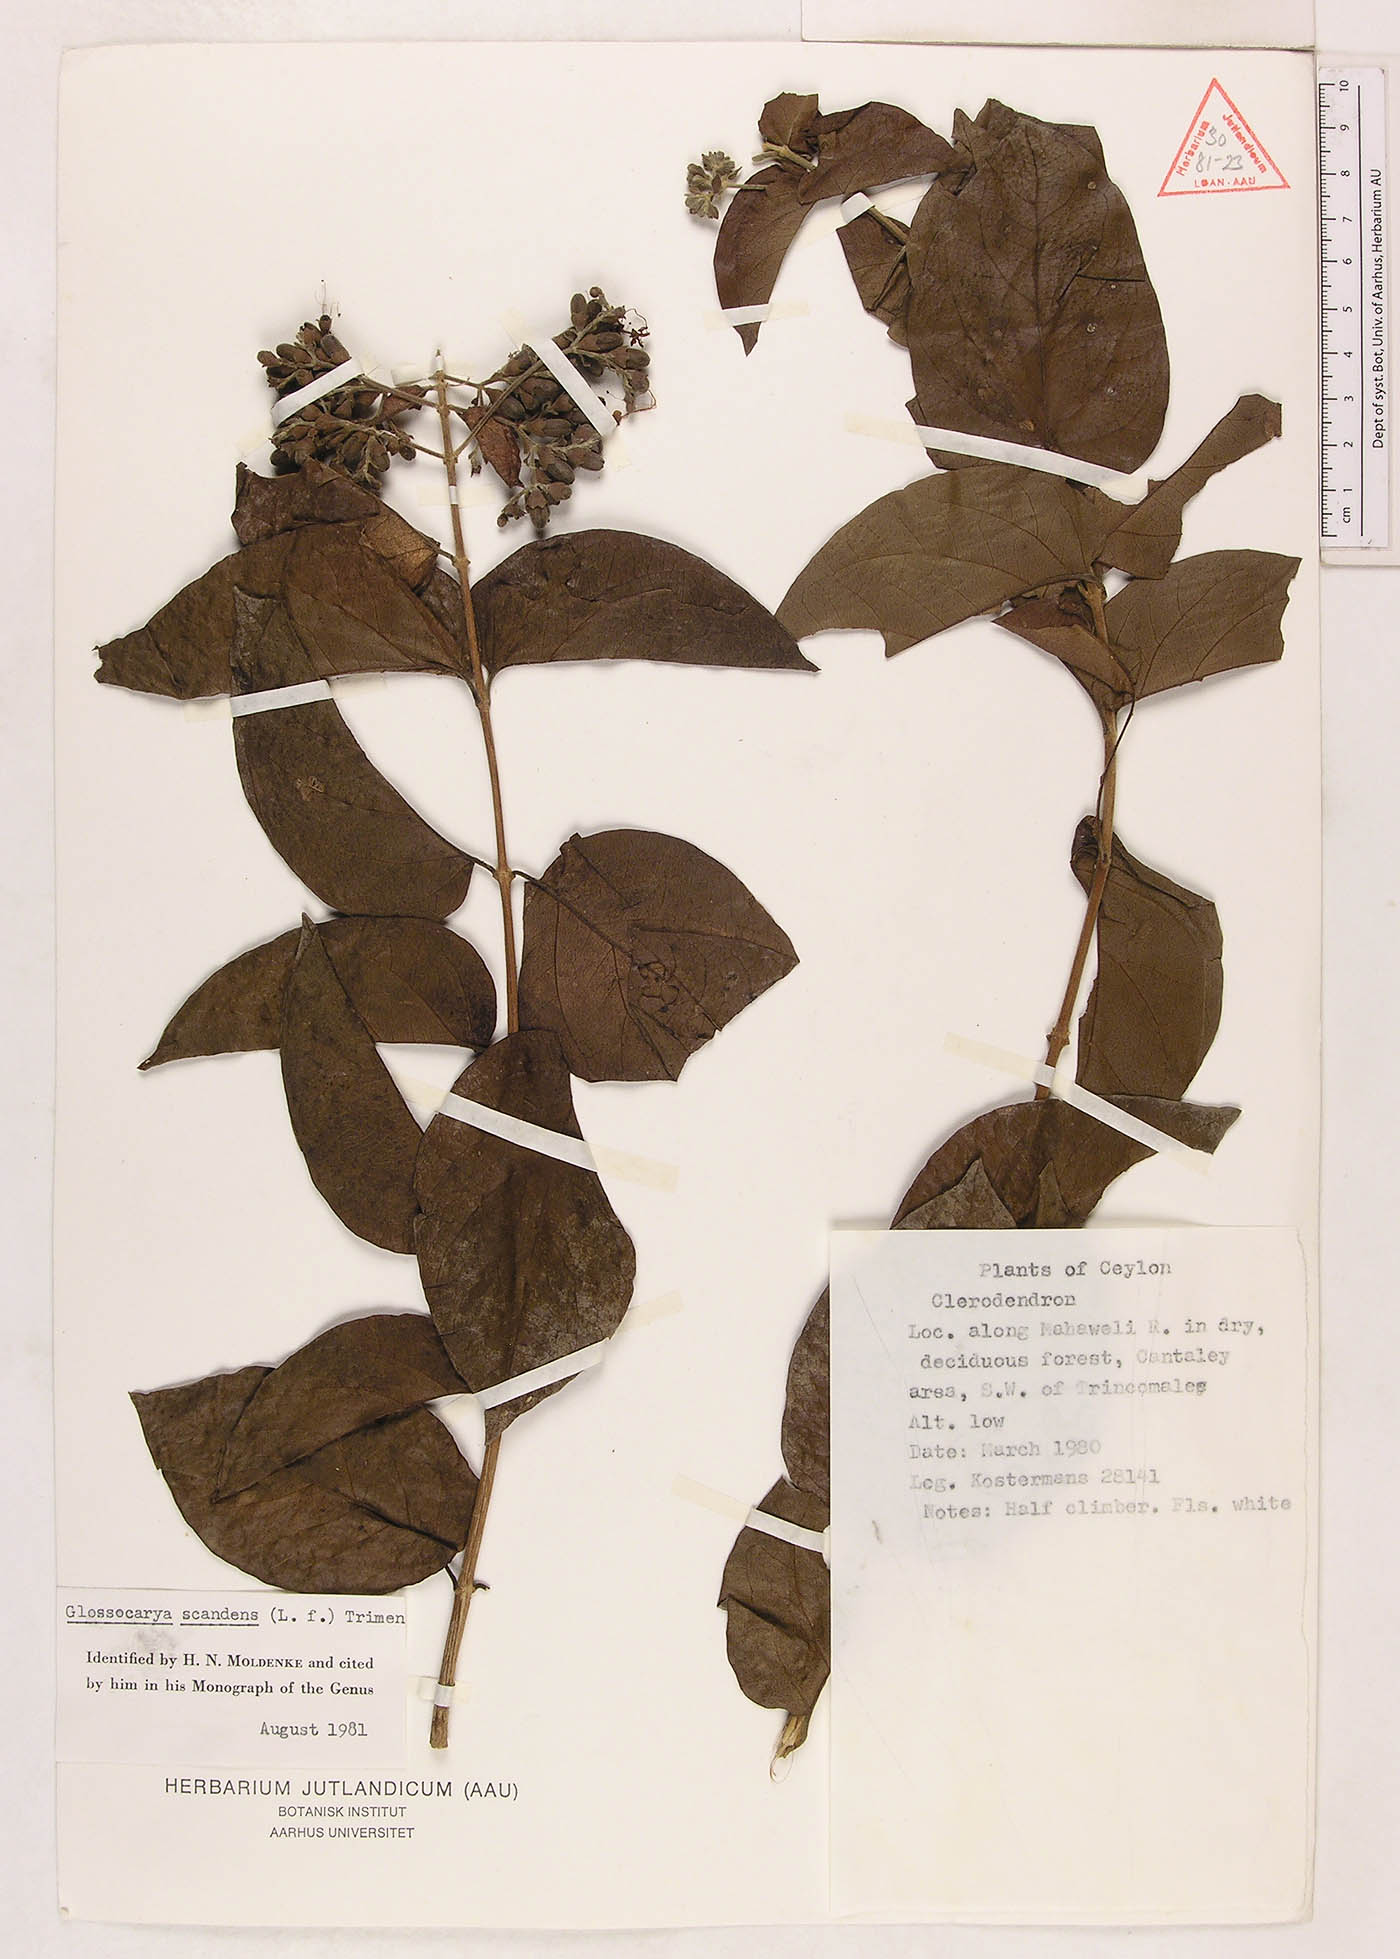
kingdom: Plantae
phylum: Tracheophyta
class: Magnoliopsida
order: Lamiales
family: Lamiaceae
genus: Glossocarya
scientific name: Glossocarya scandens
